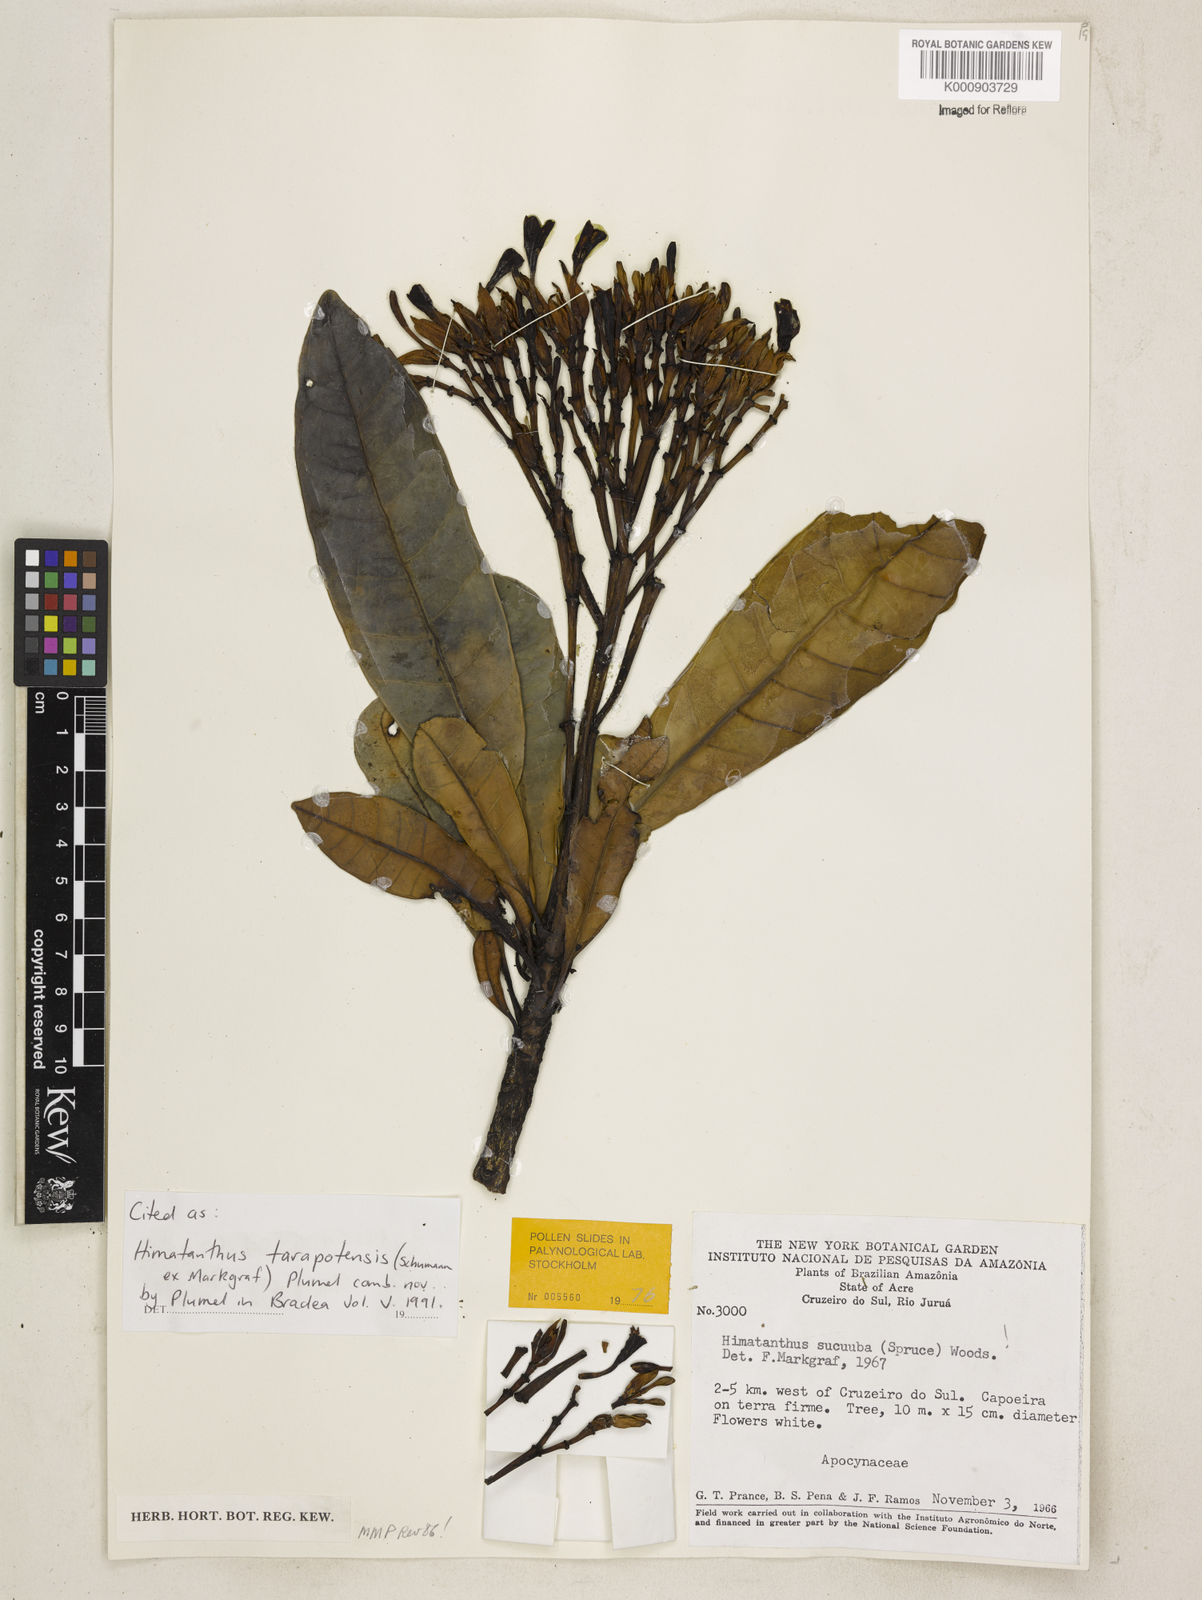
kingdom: Plantae
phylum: Tracheophyta
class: Magnoliopsida
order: Gentianales
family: Apocynaceae
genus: Himatanthus
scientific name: Himatanthus tarapotensis
